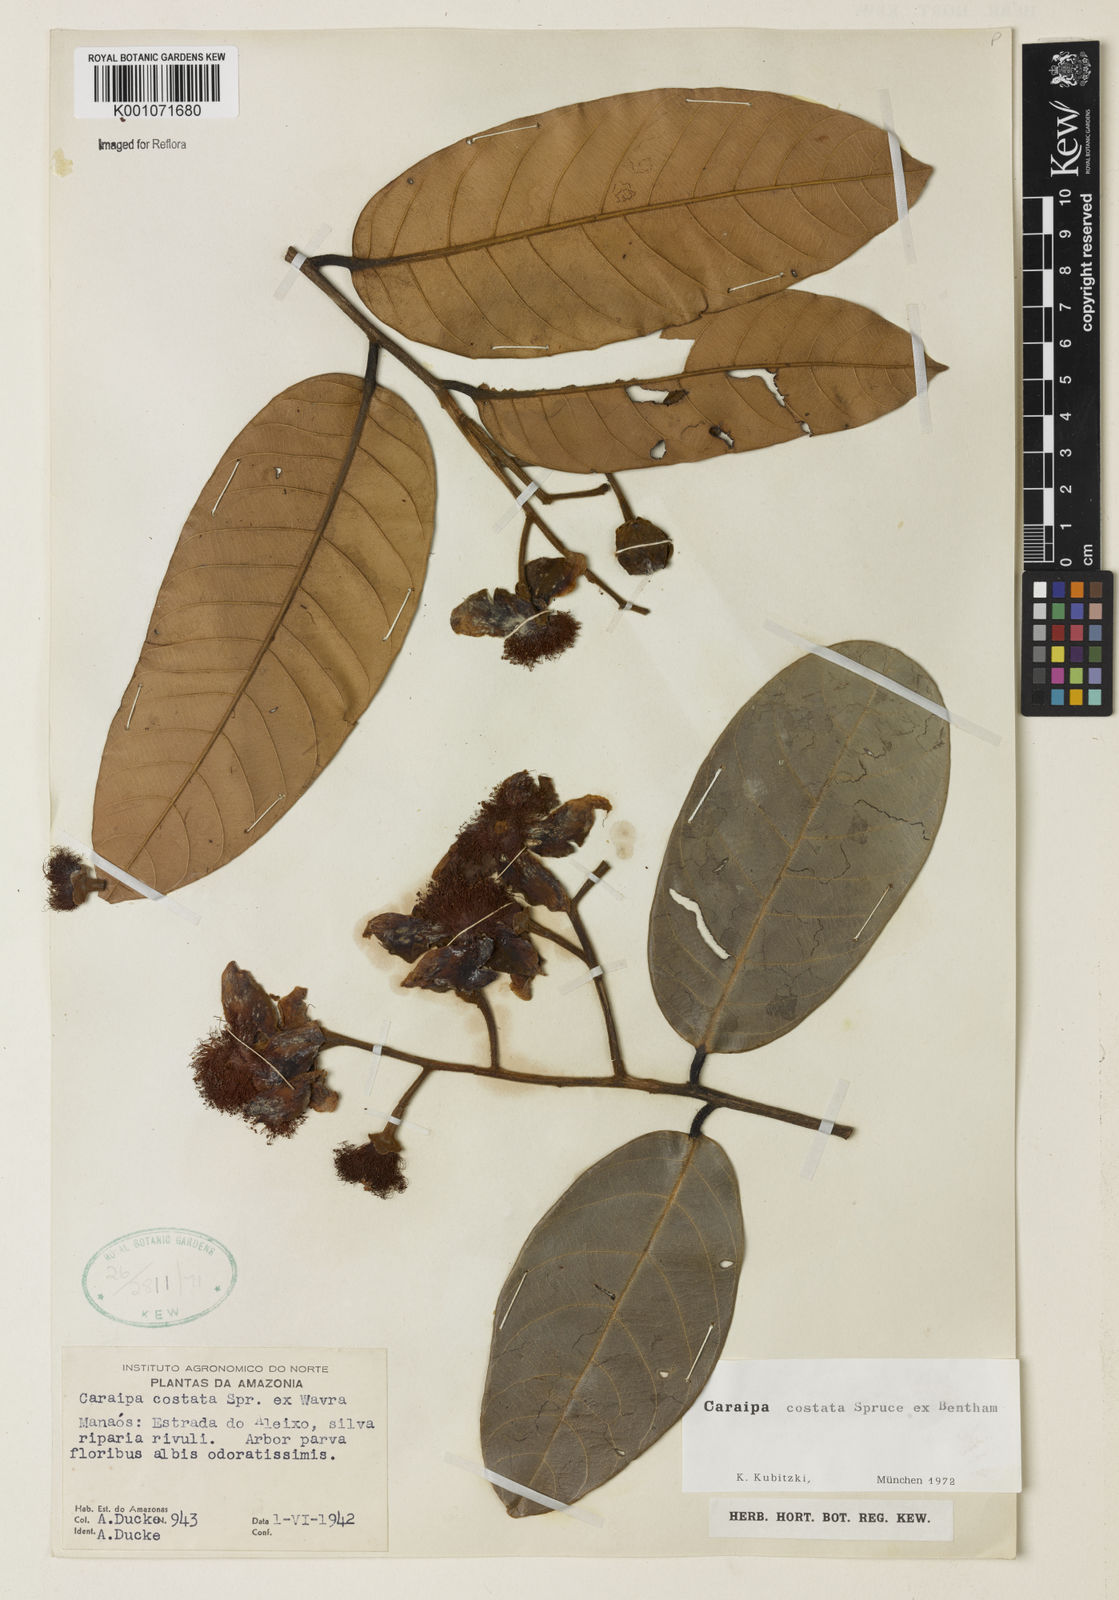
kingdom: Plantae
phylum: Tracheophyta
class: Magnoliopsida
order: Malpighiales
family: Calophyllaceae
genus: Caraipa
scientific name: Caraipa costata
